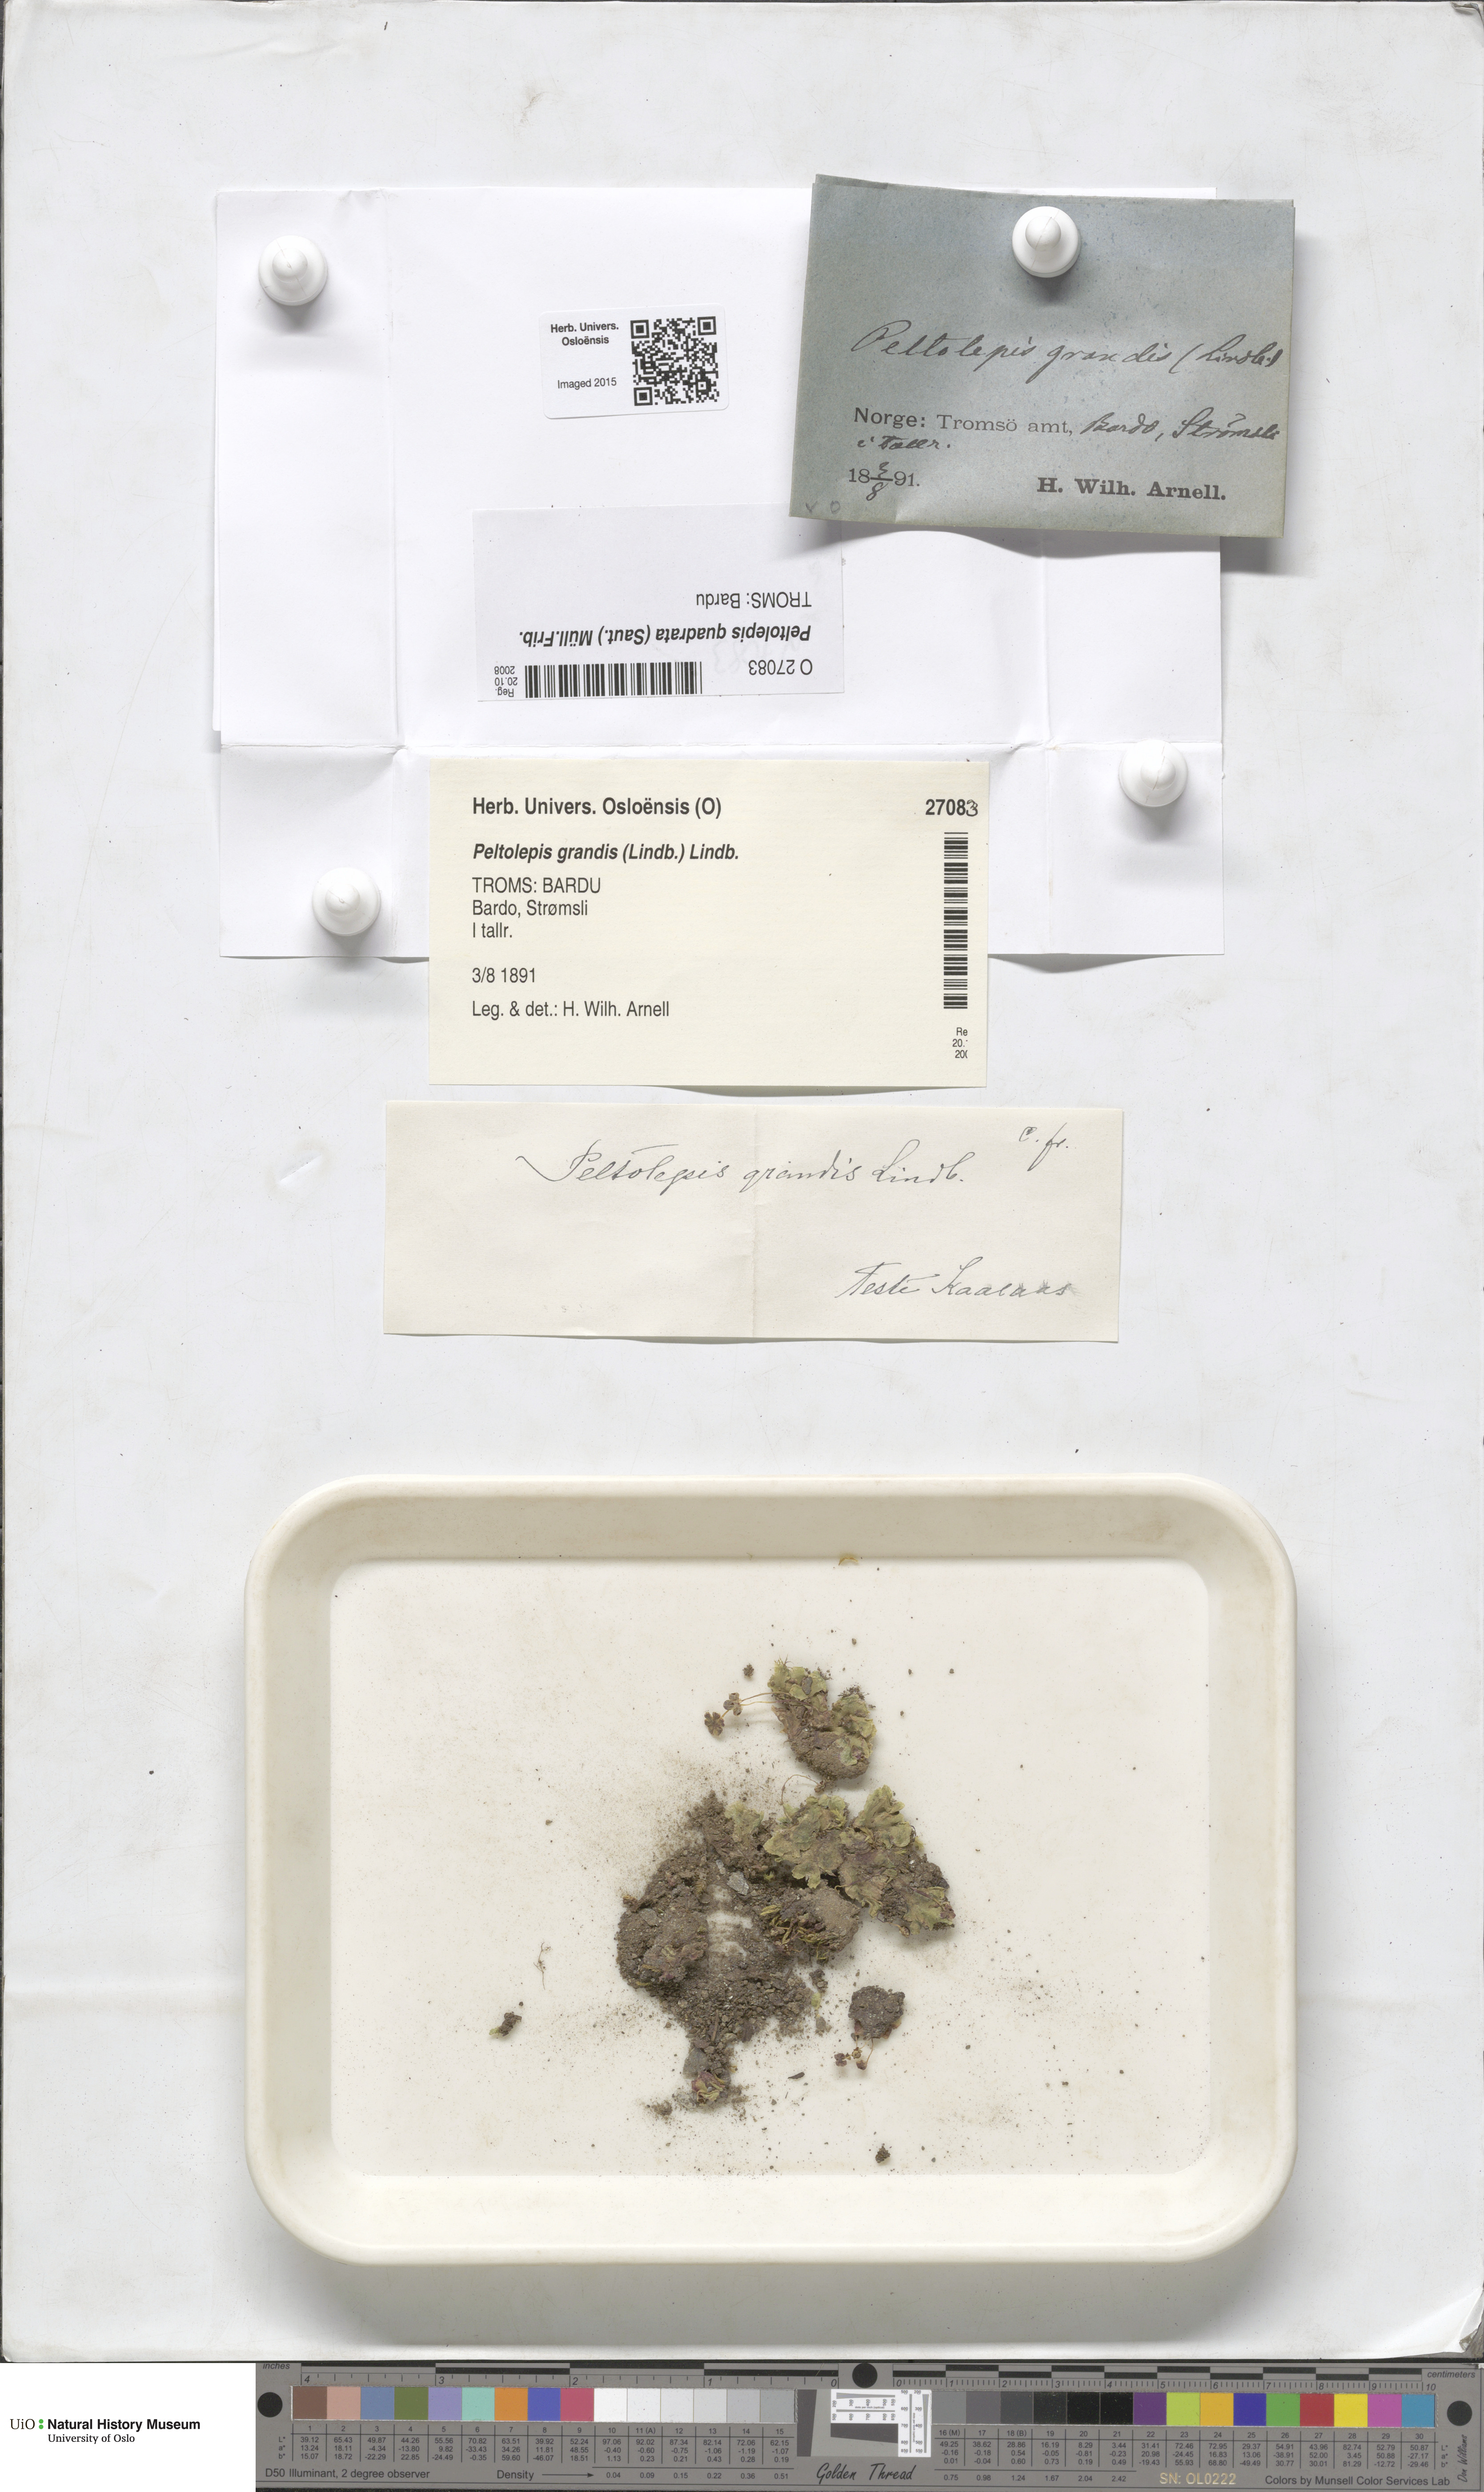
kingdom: Plantae
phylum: Marchantiophyta
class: Marchantiopsida
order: Marchantiales
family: Cleveaceae
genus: Peltolepis
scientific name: Peltolepis quadrata
